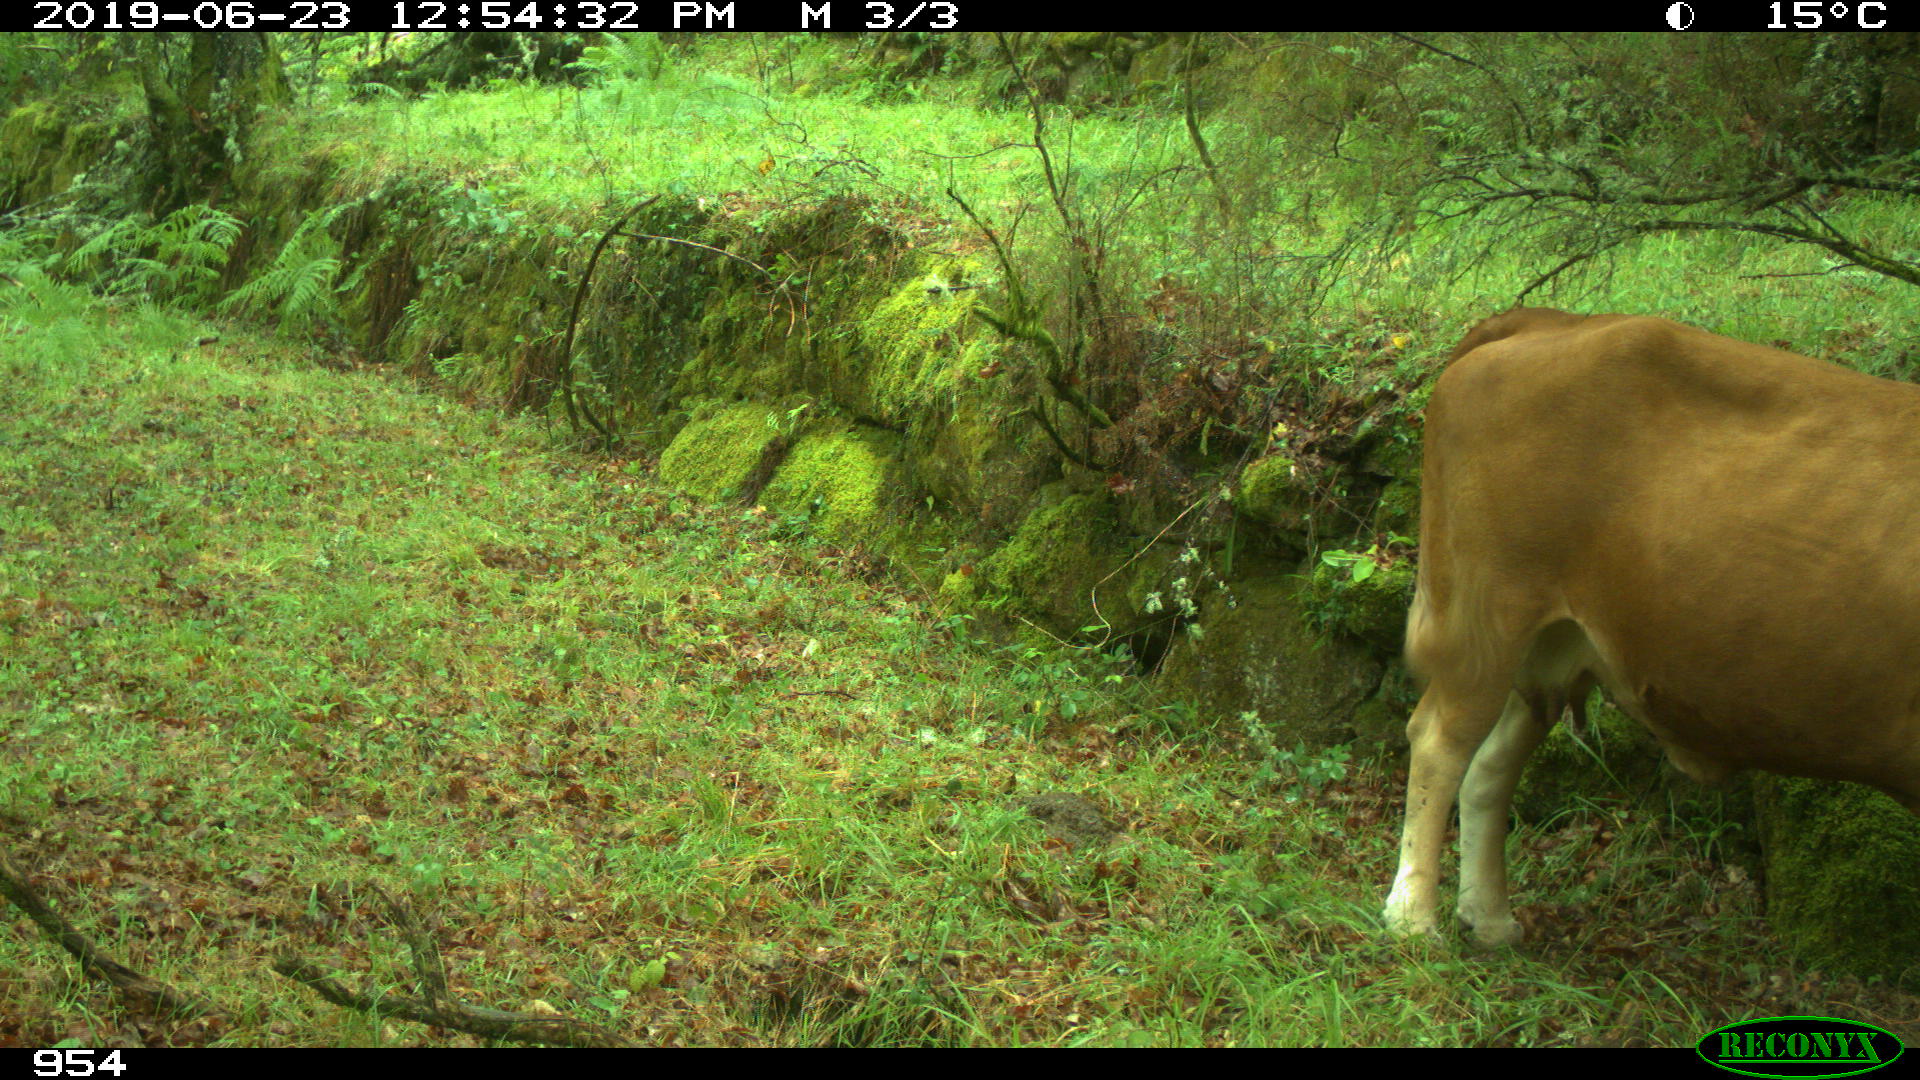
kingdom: Animalia
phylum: Chordata
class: Mammalia
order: Artiodactyla
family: Bovidae
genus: Bos
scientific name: Bos taurus
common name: Domesticated cattle
